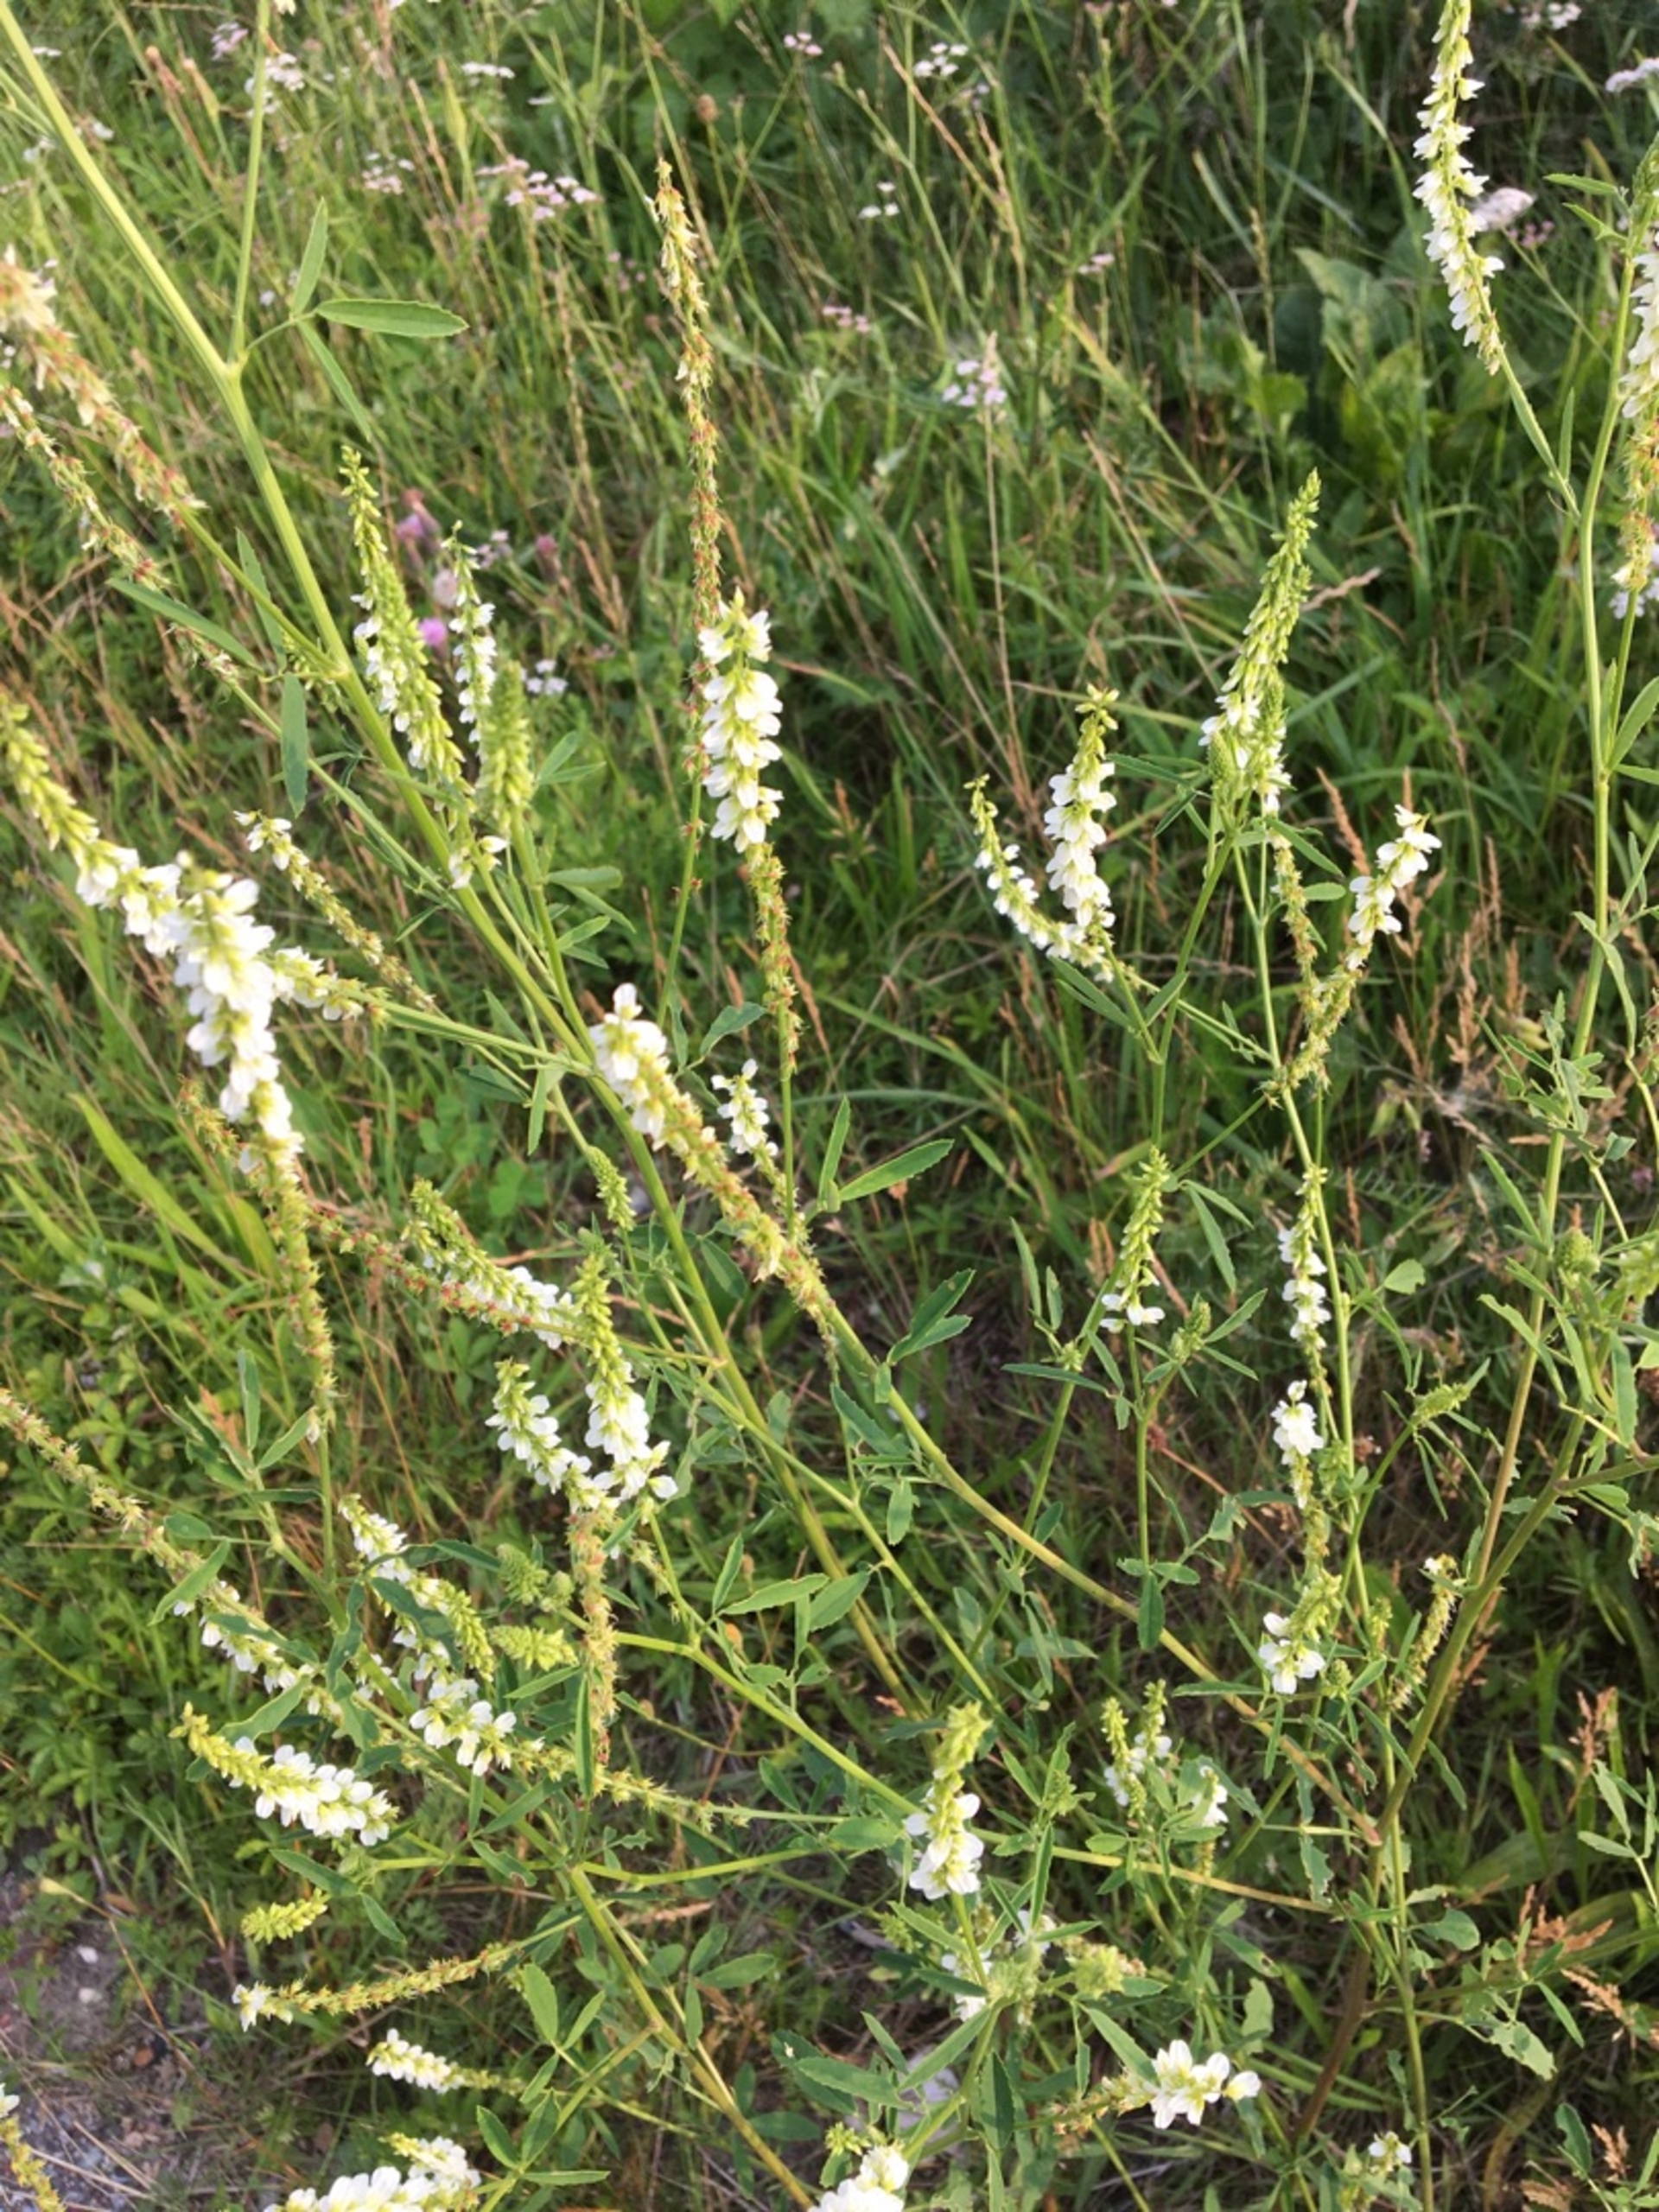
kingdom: Plantae
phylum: Tracheophyta
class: Magnoliopsida
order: Fabales
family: Fabaceae
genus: Melilotus
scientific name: Melilotus albus
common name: Hvid stenkløver
